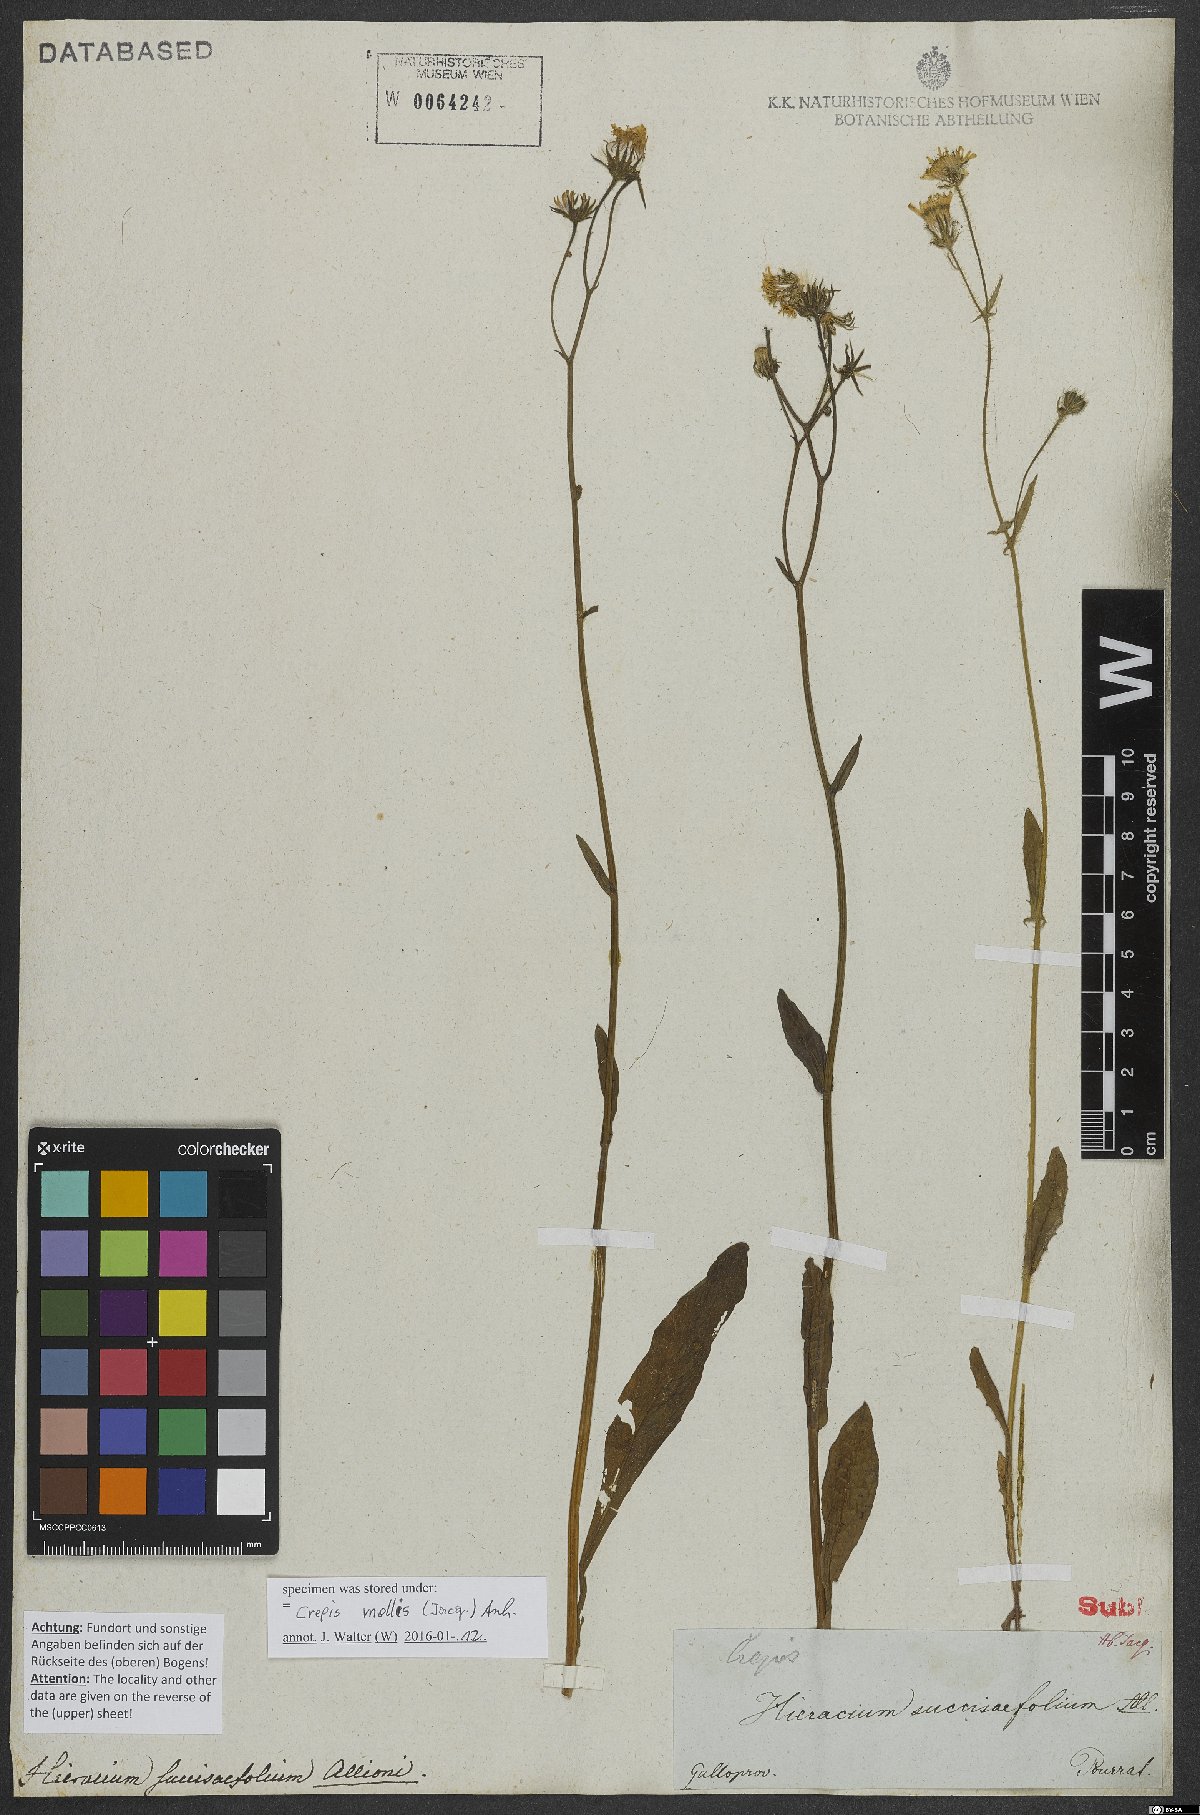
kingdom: Plantae
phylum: Tracheophyta
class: Magnoliopsida
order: Asterales
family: Asteraceae
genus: Crepis
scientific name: Crepis mollis
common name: Northern hawk's-beard
